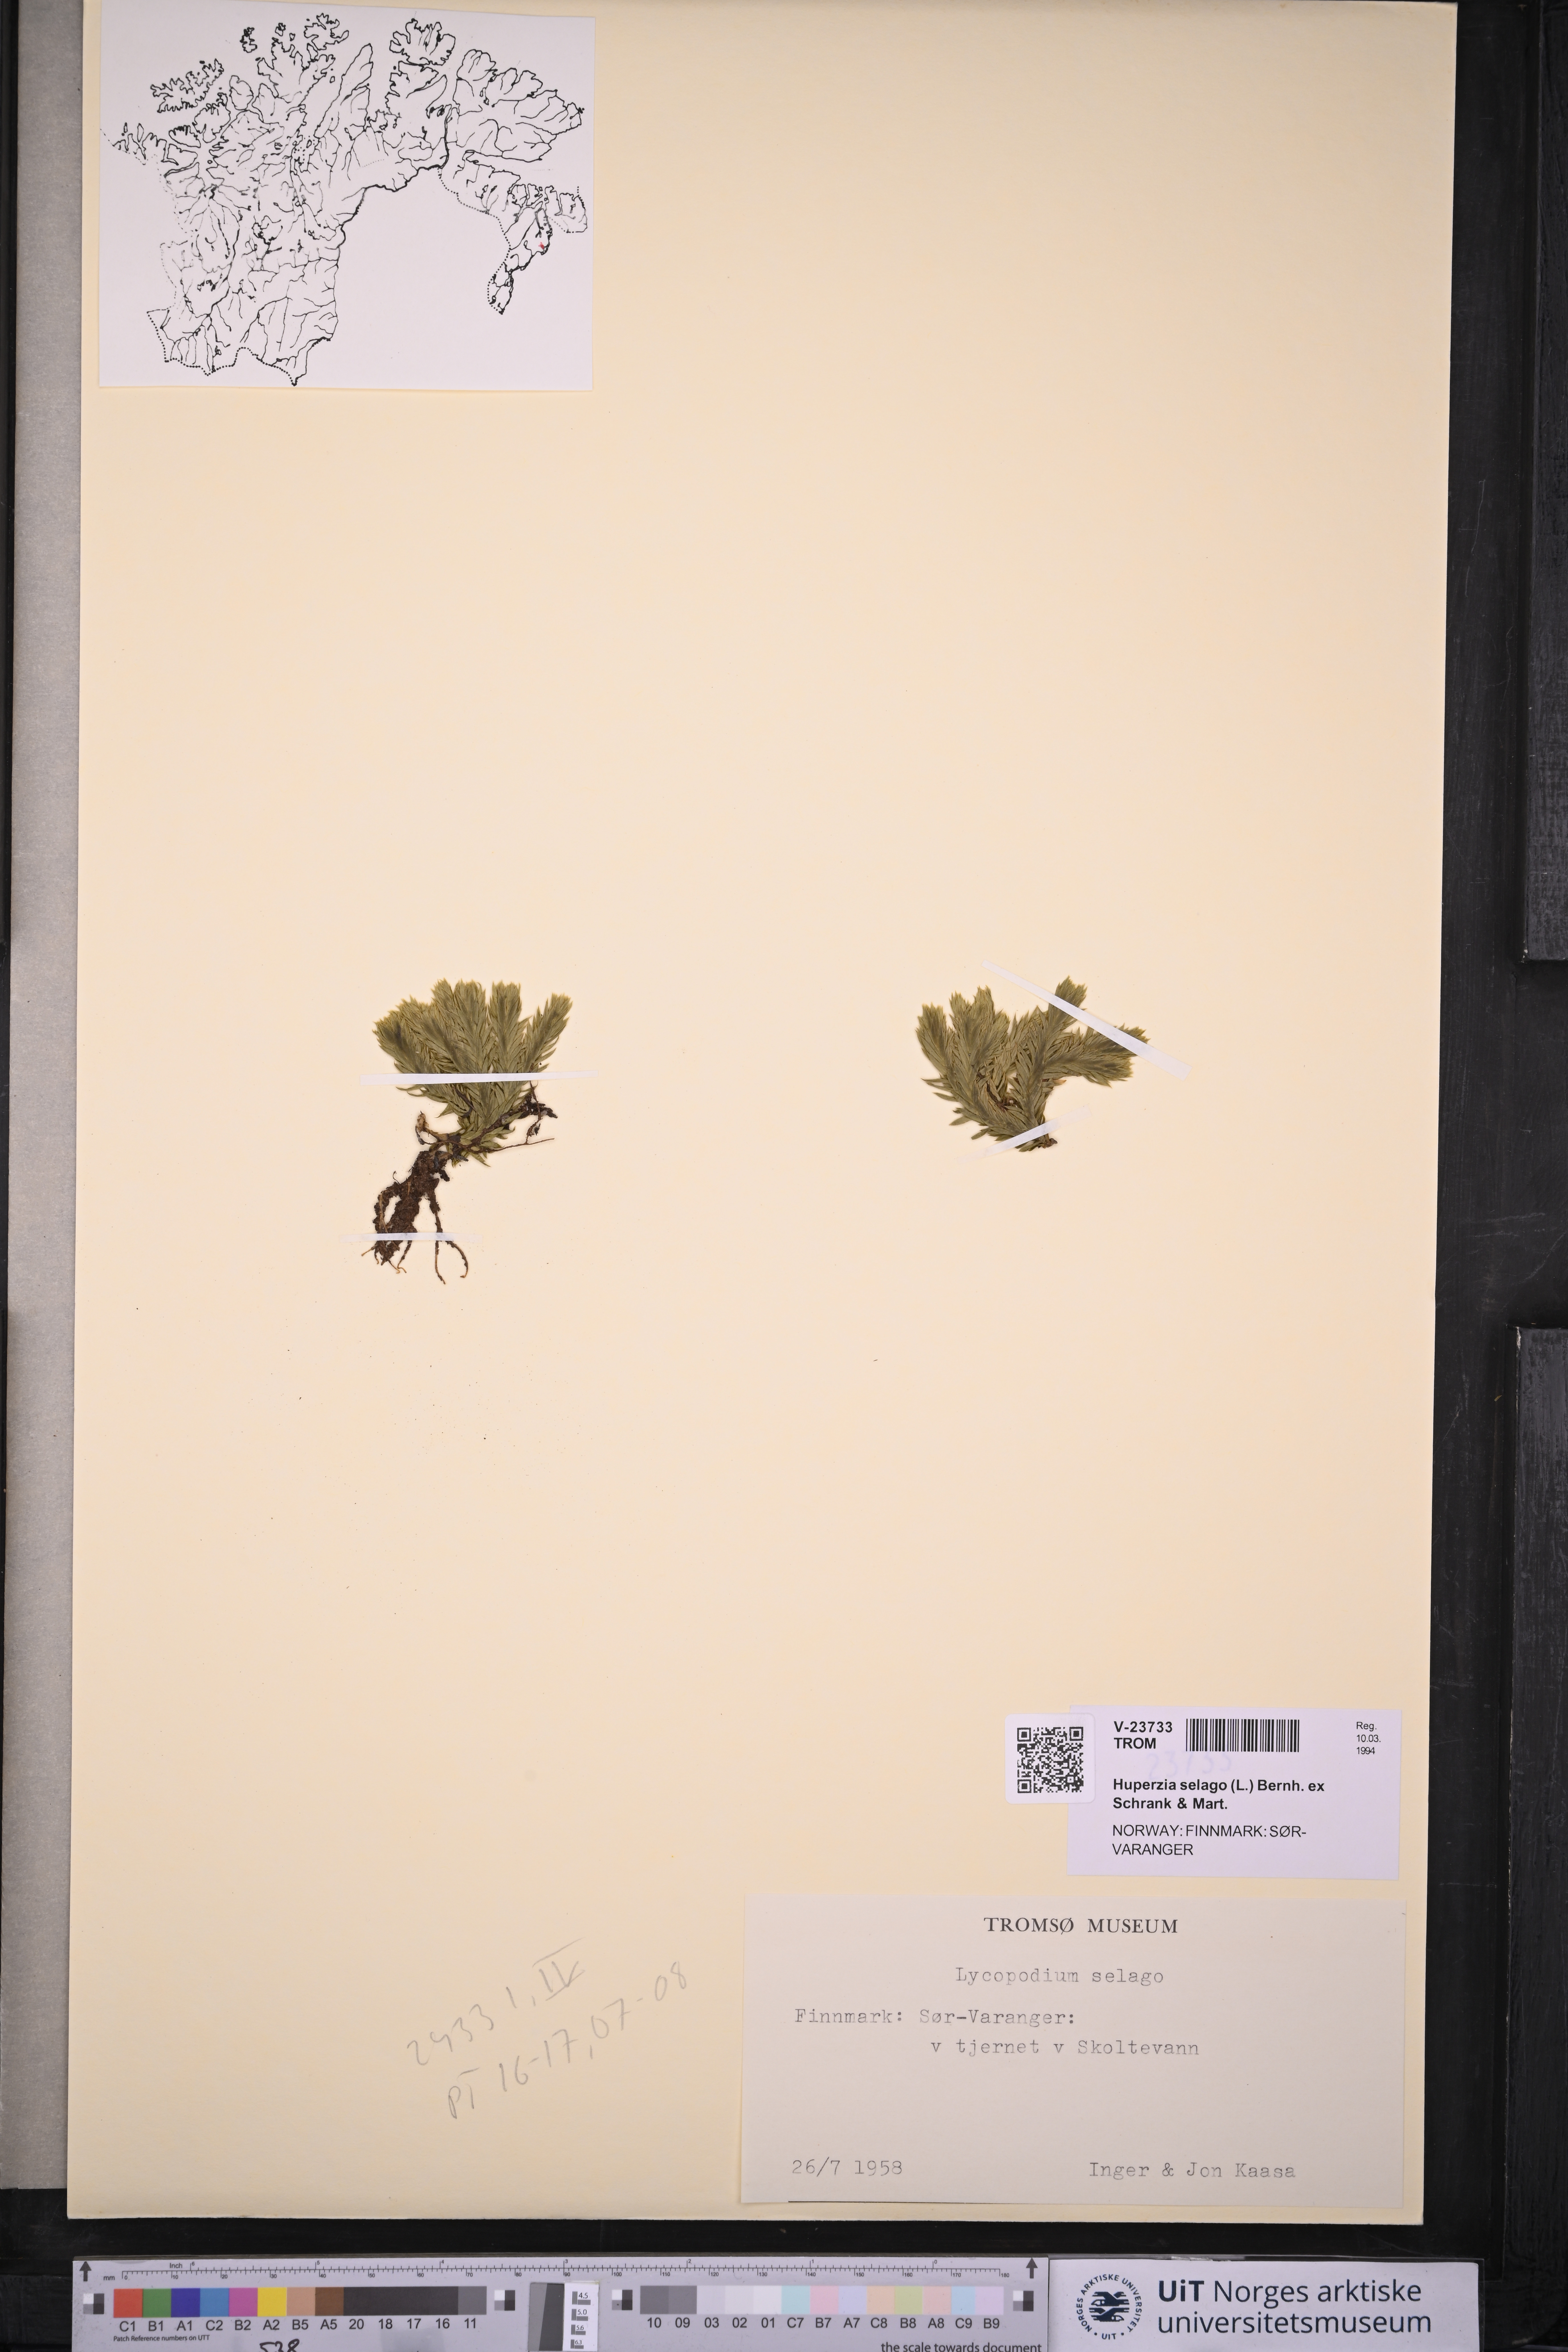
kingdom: Plantae
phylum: Tracheophyta
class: Lycopodiopsida
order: Lycopodiales
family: Lycopodiaceae
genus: Huperzia
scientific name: Huperzia selago
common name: Northern firmoss
